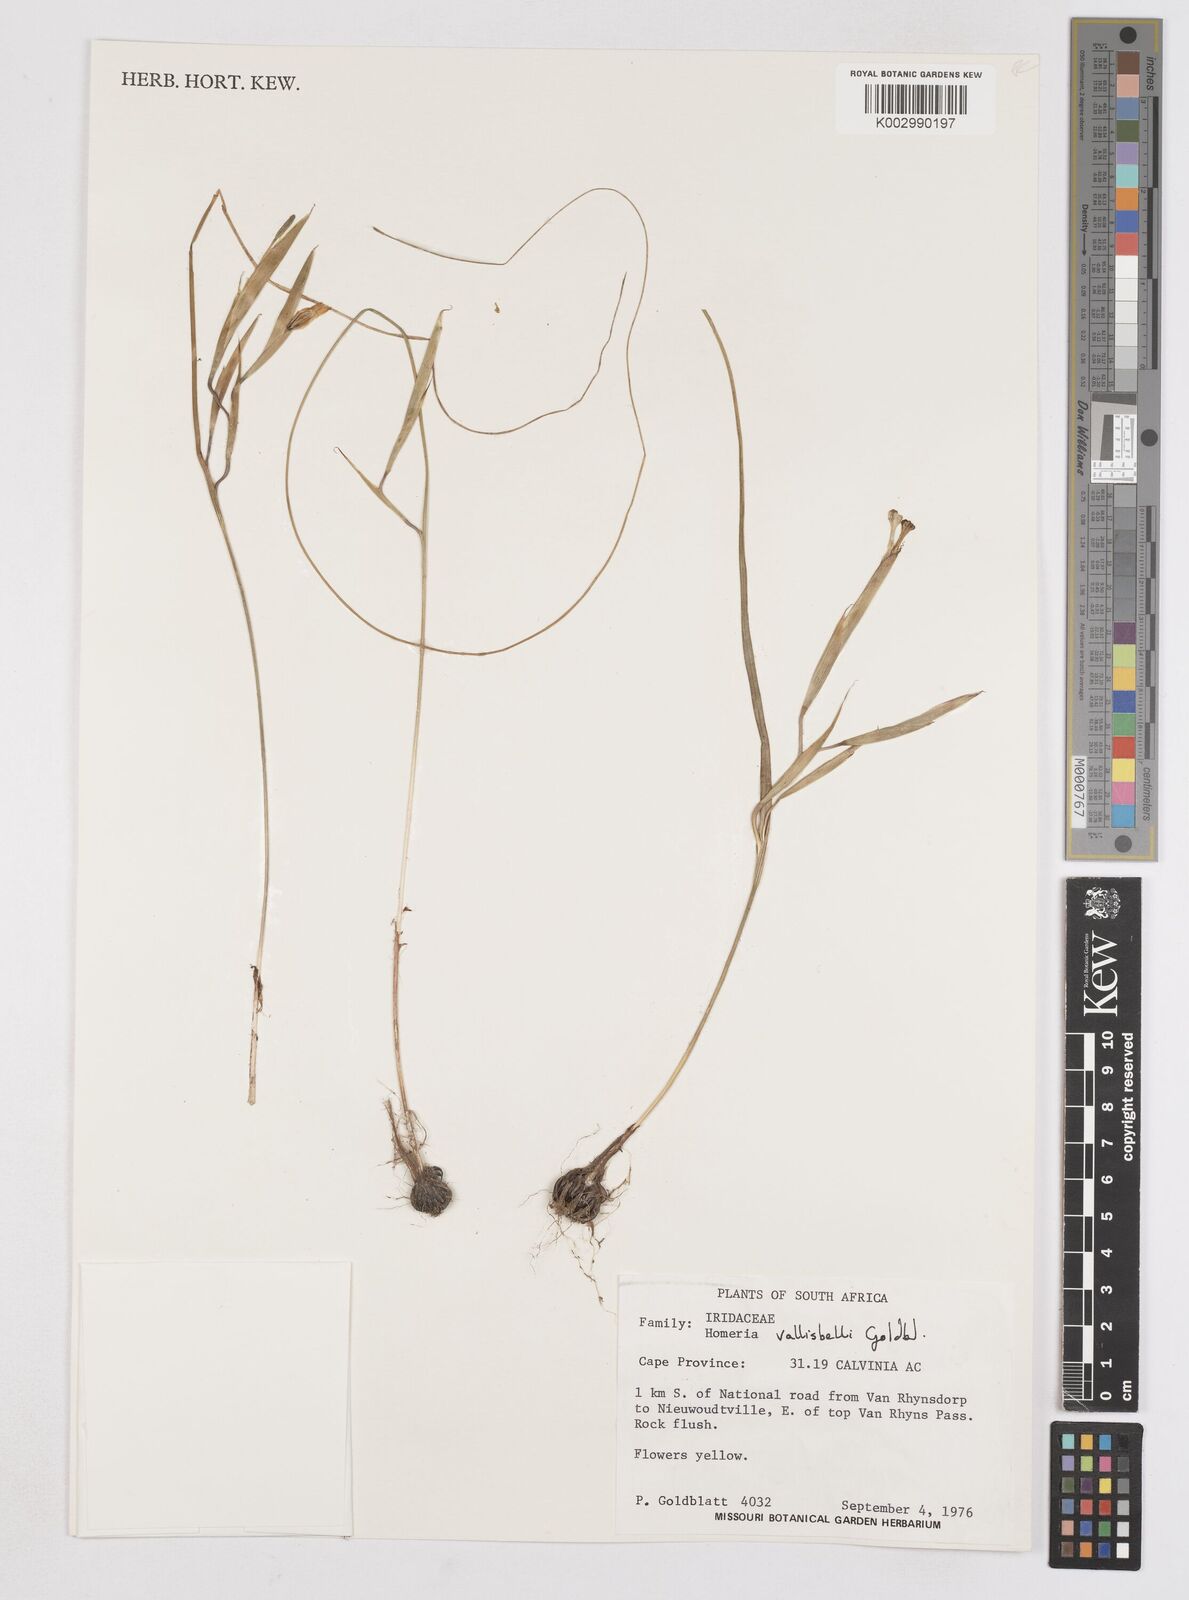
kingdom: Plantae
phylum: Tracheophyta
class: Liliopsida
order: Asparagales
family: Iridaceae
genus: Moraea
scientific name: Moraea vallisavium
